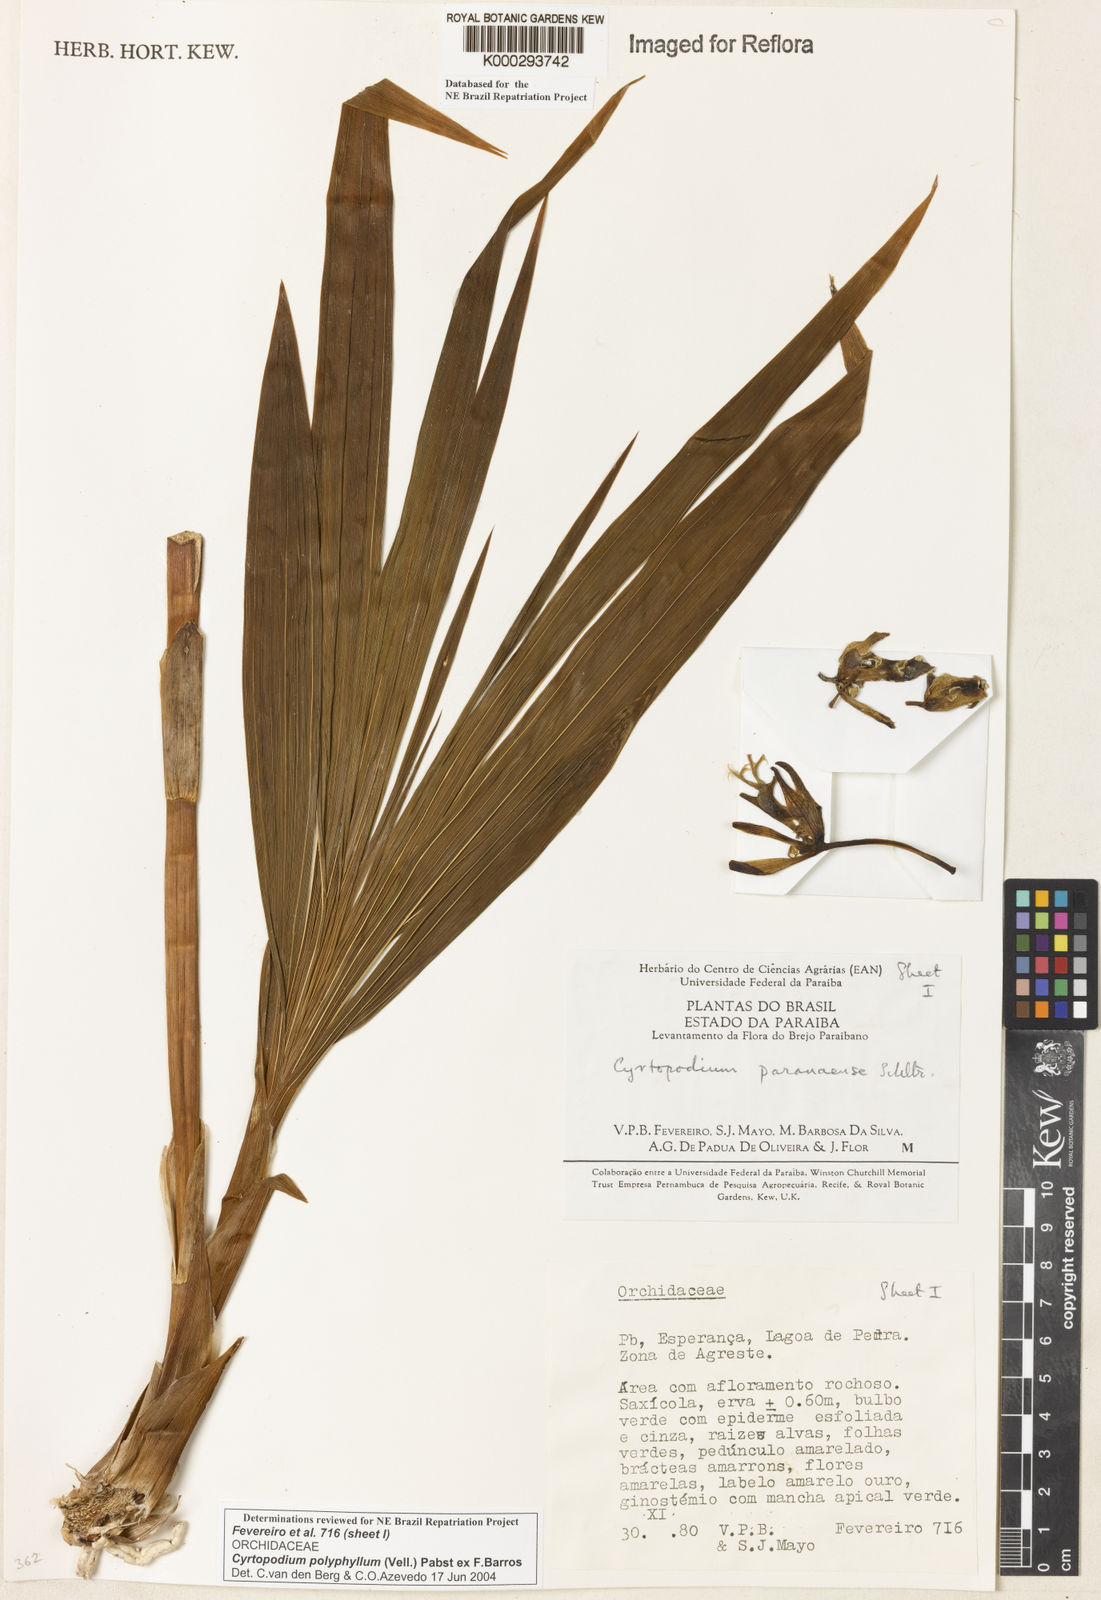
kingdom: Plantae
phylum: Tracheophyta
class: Liliopsida
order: Asparagales
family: Orchidaceae
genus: Cyrtopodium
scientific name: Cyrtopodium flavum
